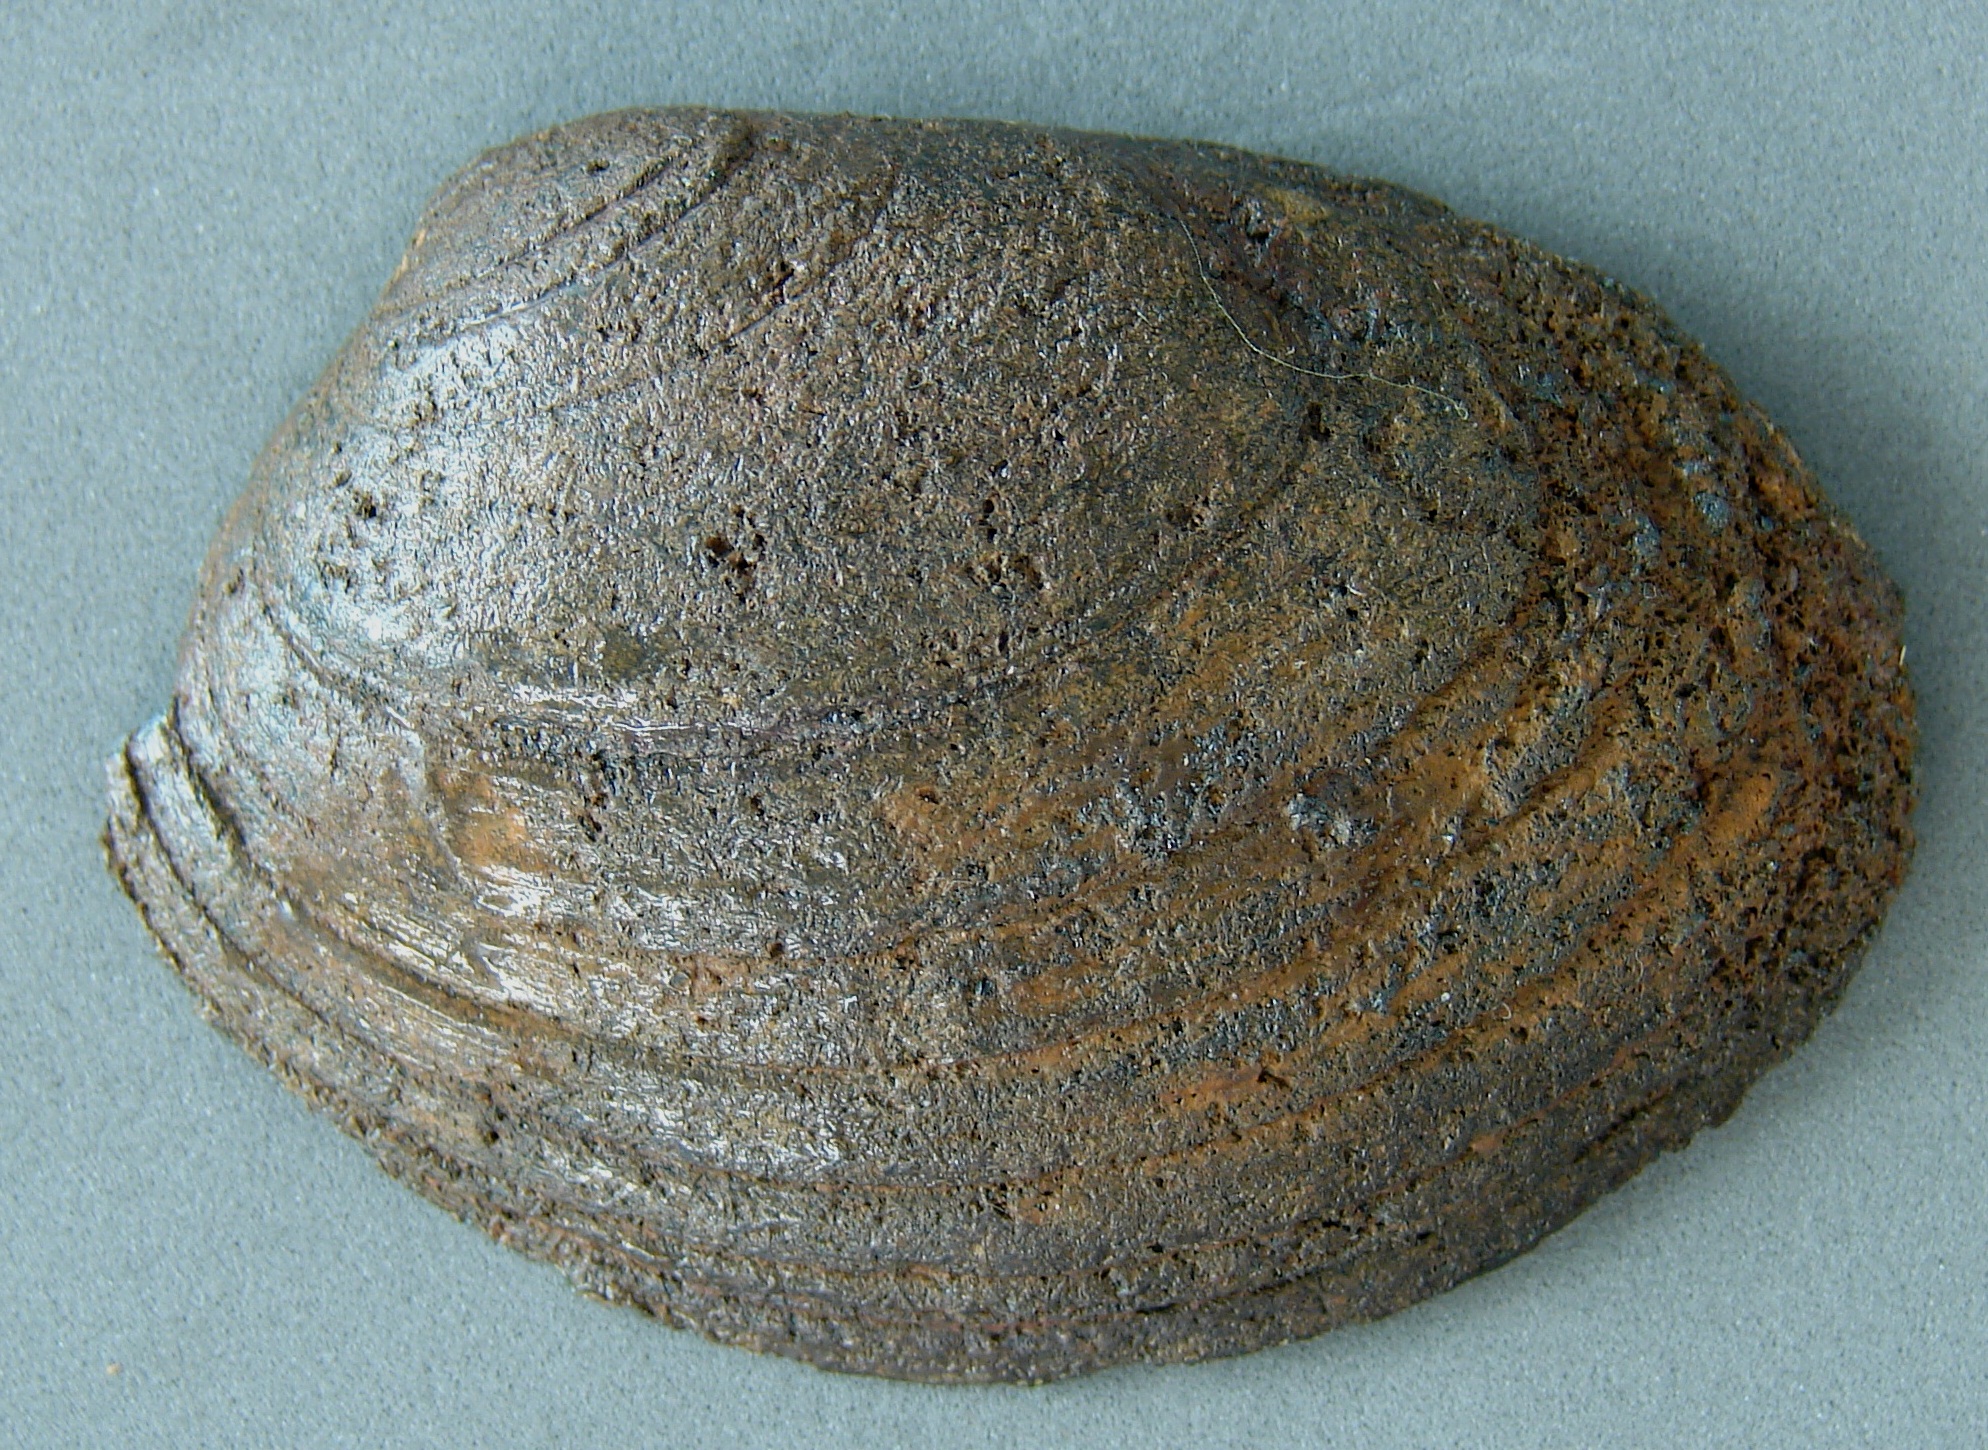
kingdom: Animalia
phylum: Mollusca
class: Bivalvia
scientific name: Bivalvia
